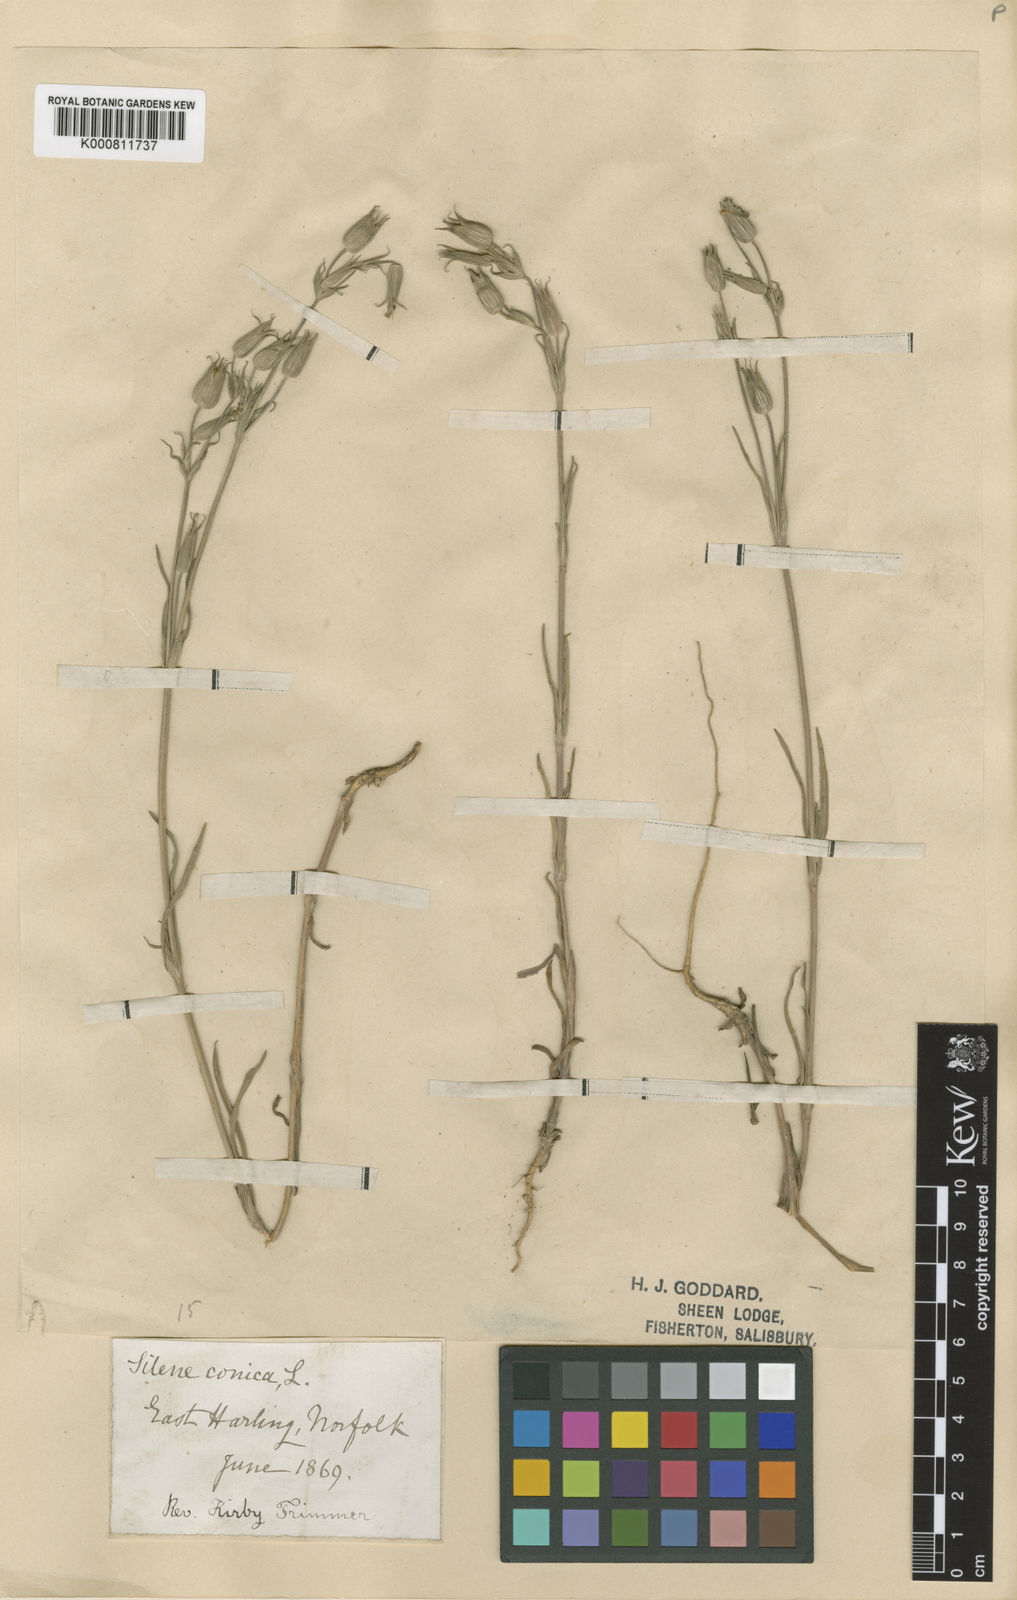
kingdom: Plantae
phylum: Tracheophyta
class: Magnoliopsida
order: Caryophyllales
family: Caryophyllaceae
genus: Silene
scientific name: Silene conica
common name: Sand catchfly
